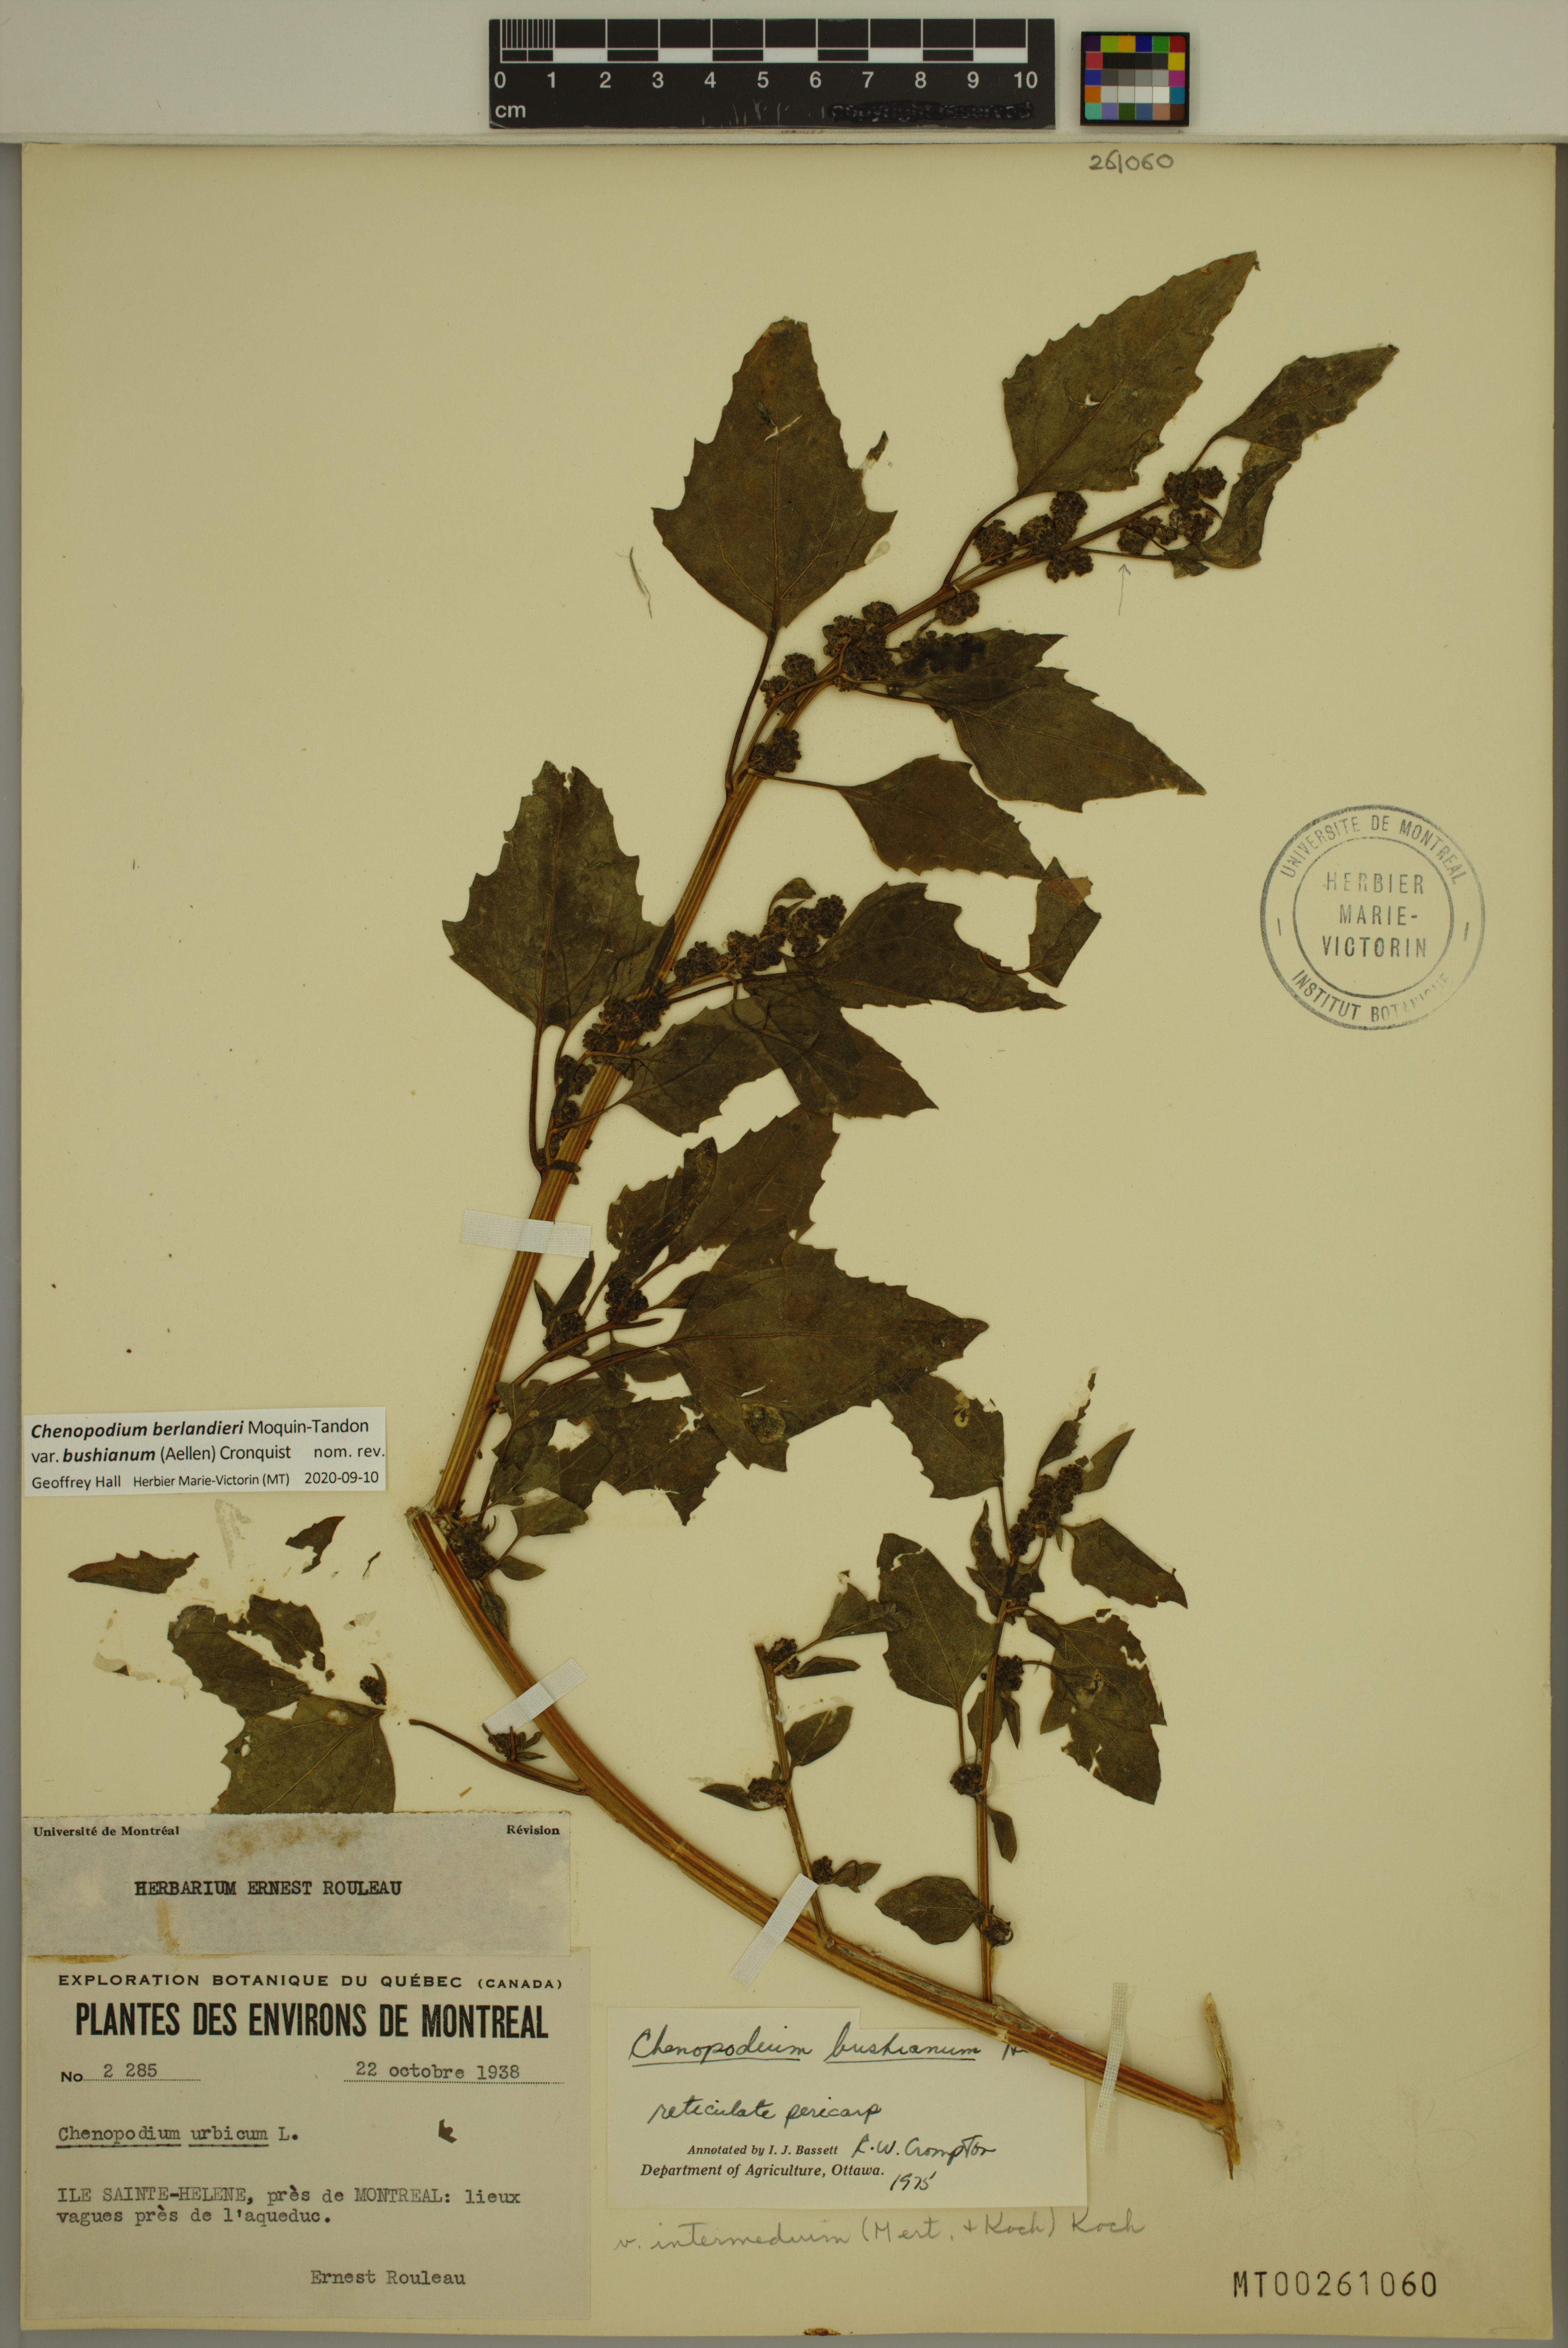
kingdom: Plantae
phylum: Tracheophyta
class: Magnoliopsida
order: Caryophyllales
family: Amaranthaceae
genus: Chenopodium
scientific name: Chenopodium berlandieri
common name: Pit-seed goosefoot
